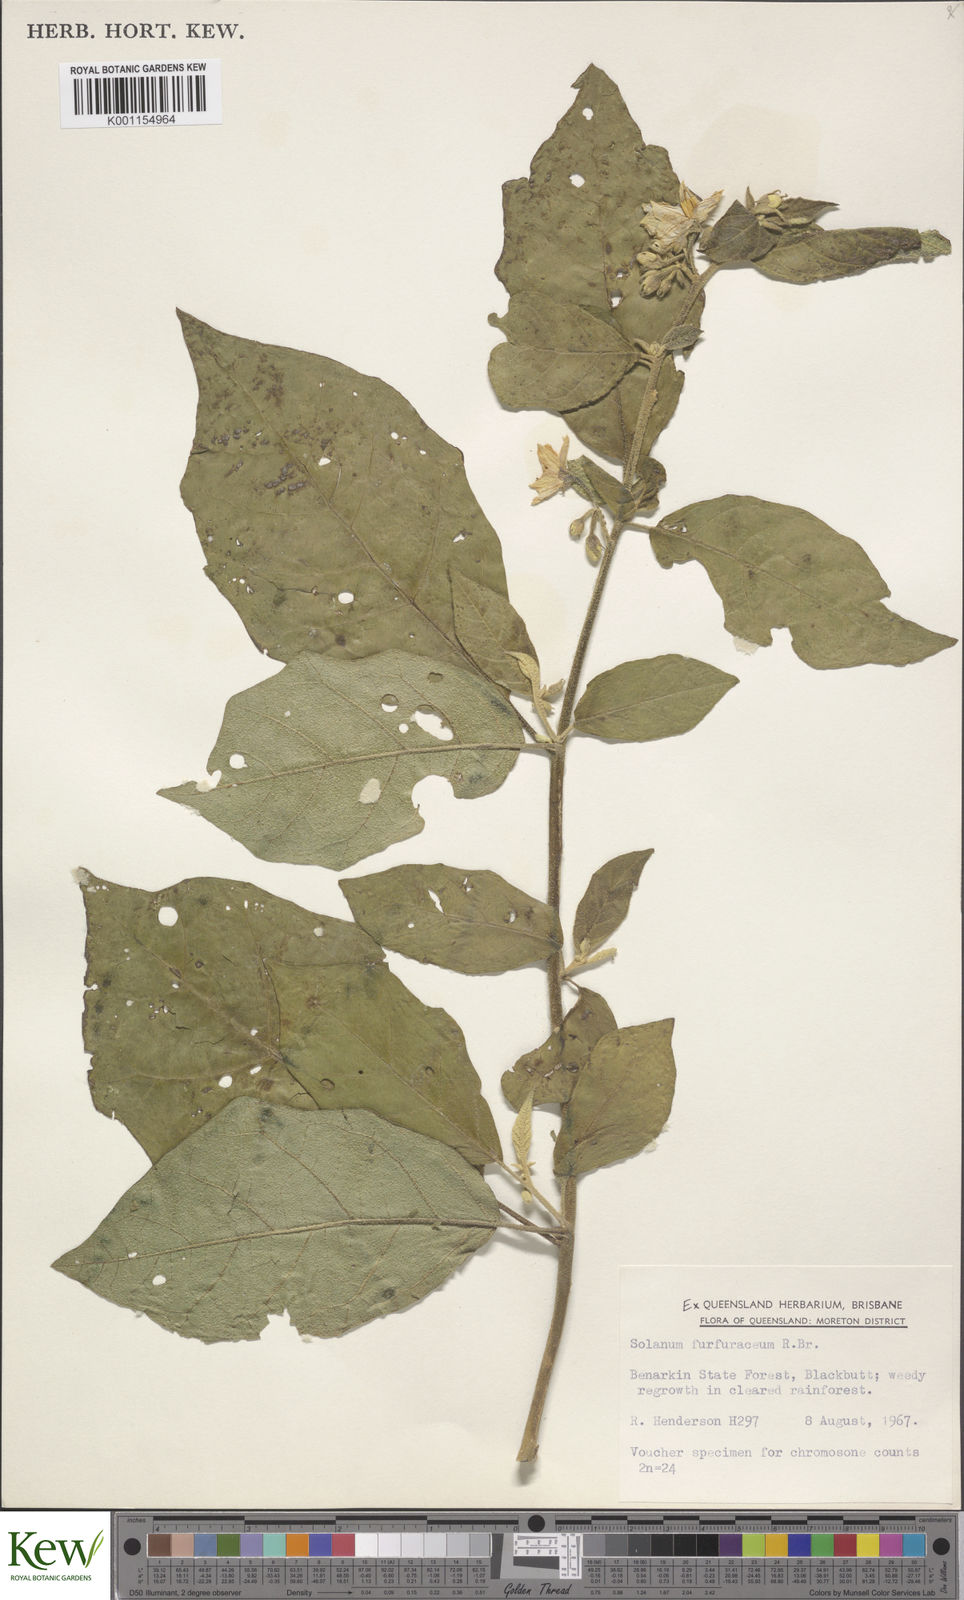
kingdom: Plantae
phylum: Tracheophyta
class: Magnoliopsida
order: Solanales
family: Solanaceae
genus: Solanum
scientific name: Solanum furfuraceum
